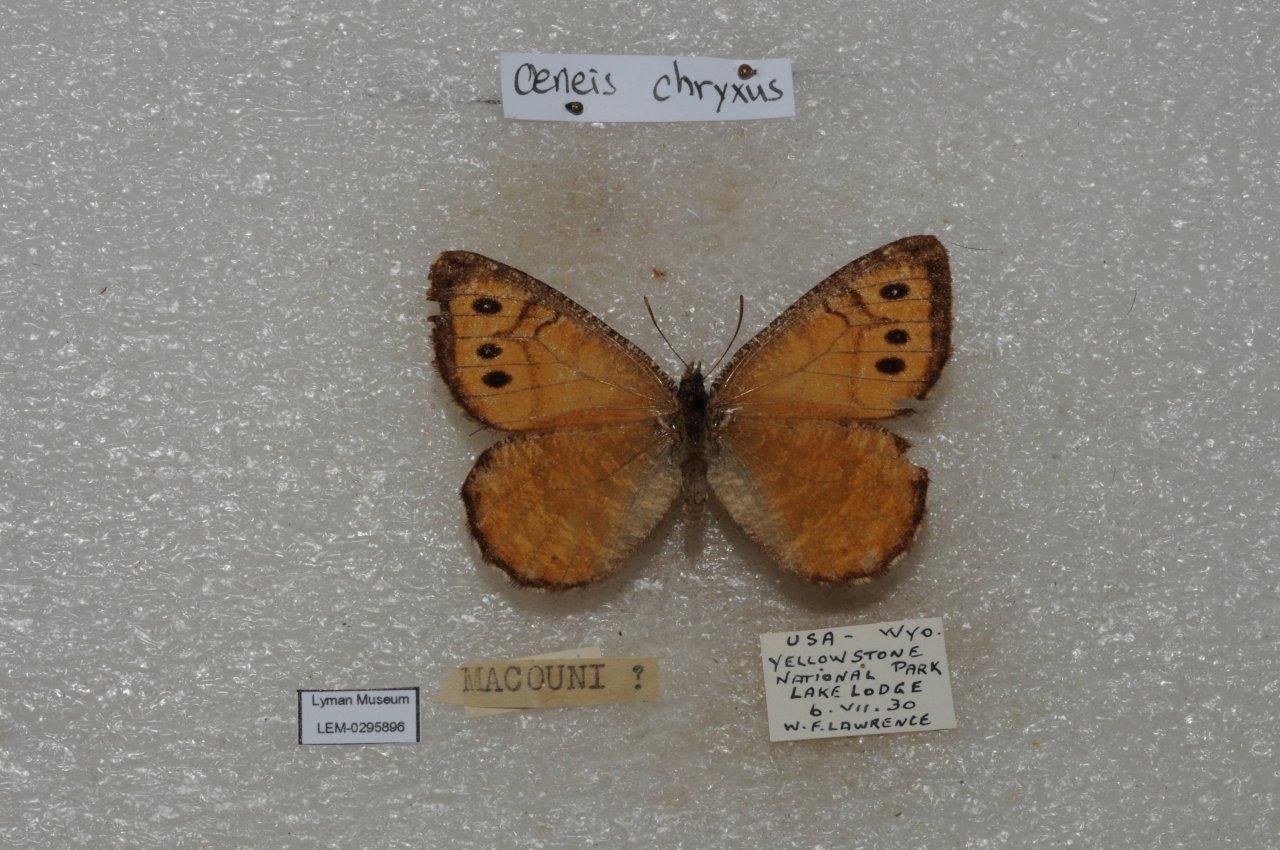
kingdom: Animalia
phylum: Arthropoda
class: Insecta
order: Lepidoptera
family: Nymphalidae
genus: Oeneis
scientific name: Oeneis chryxus
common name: Chryxus Arctic
